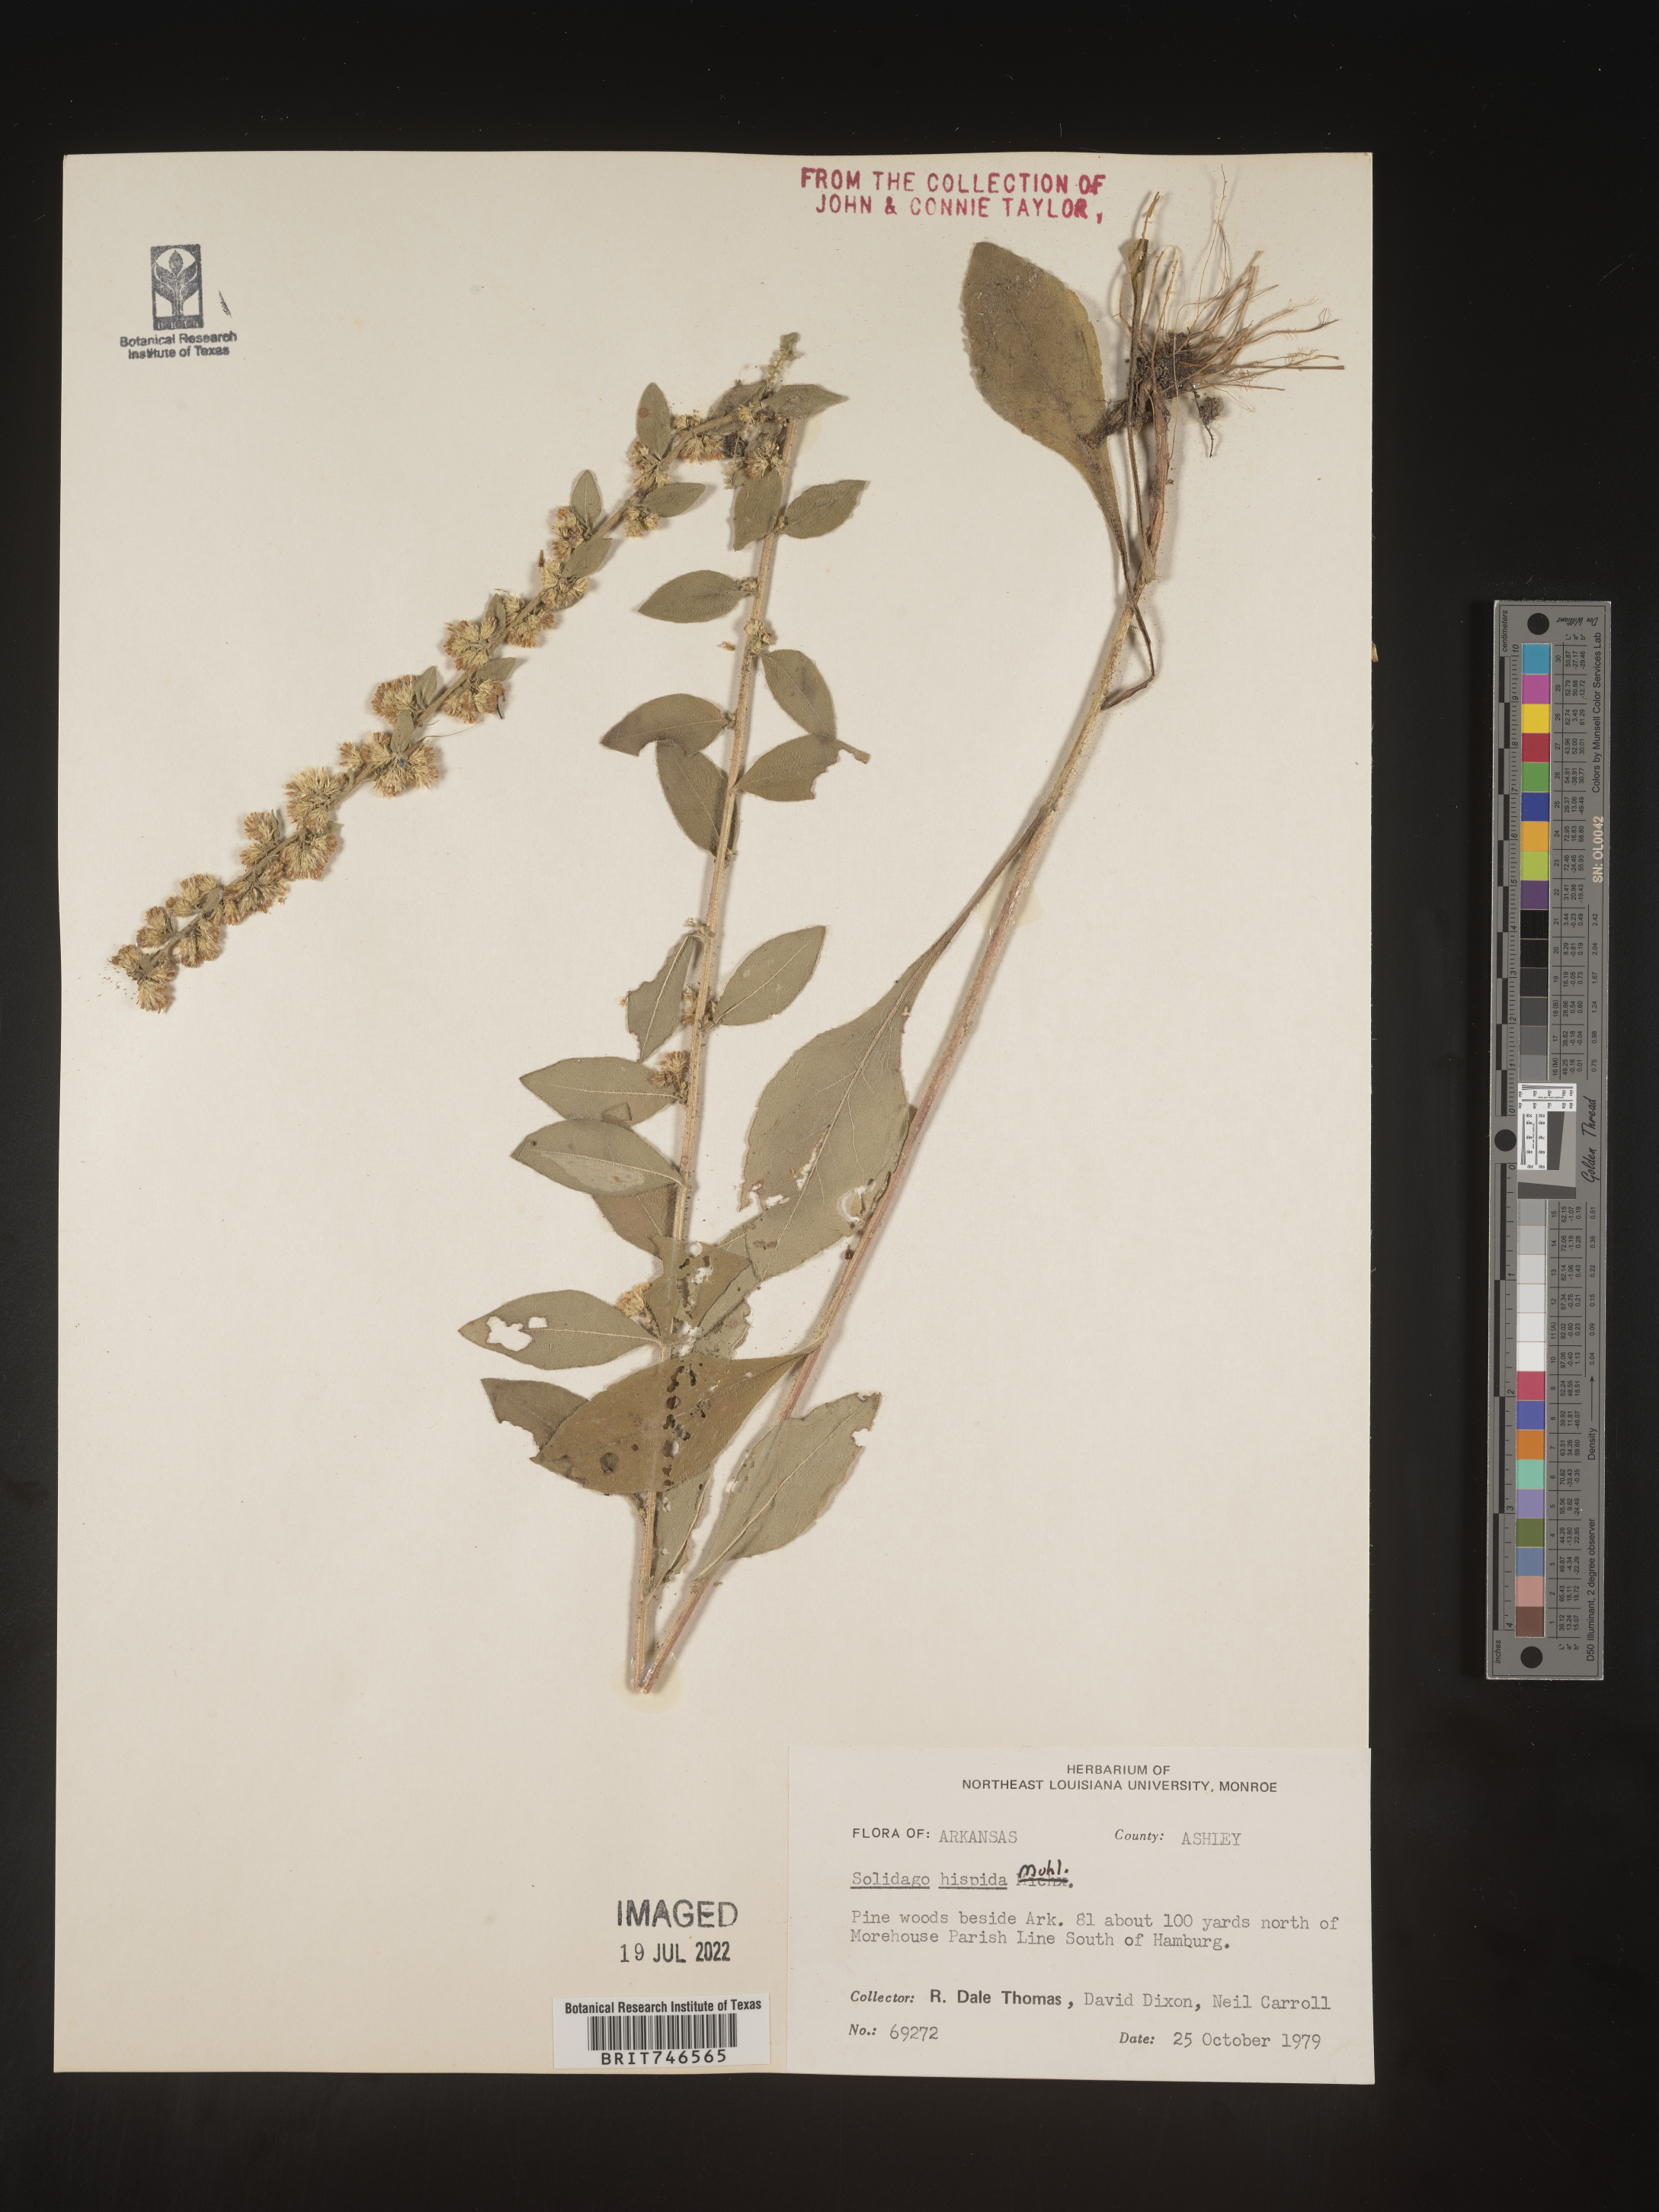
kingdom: Plantae
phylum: Tracheophyta
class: Magnoliopsida
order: Asterales
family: Asteraceae
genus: Solidago
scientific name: Solidago hispida
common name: Hairy goldenrod
